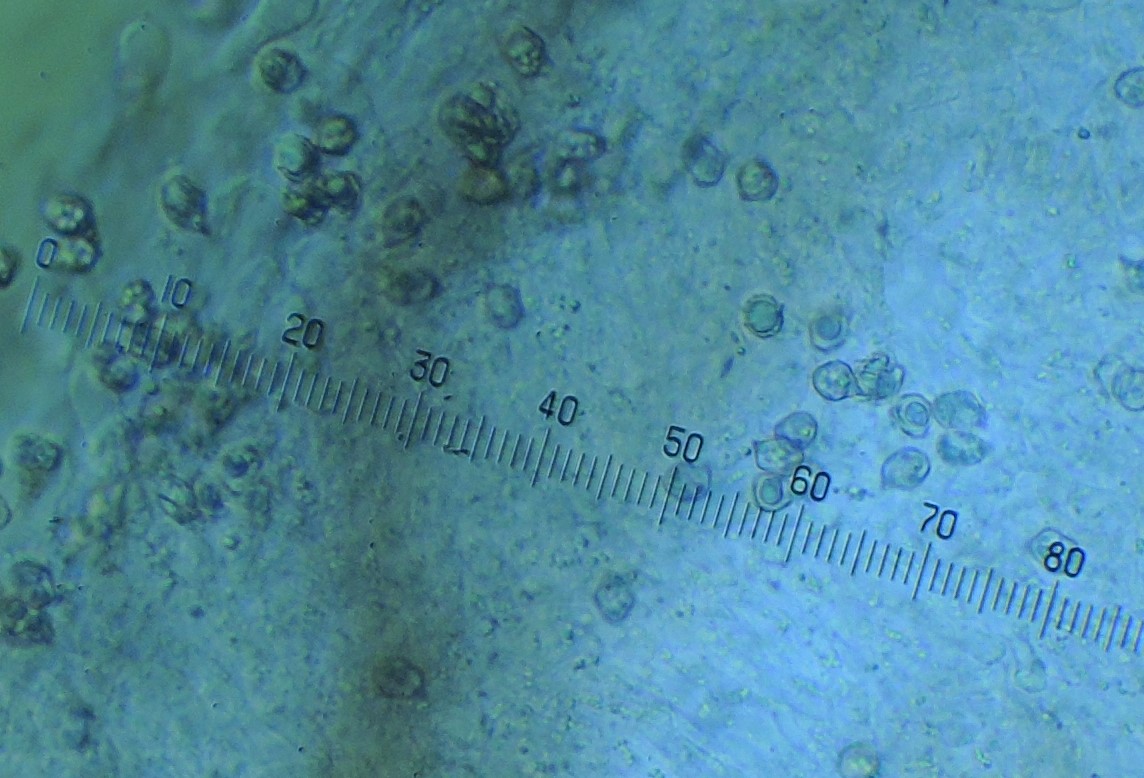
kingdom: Fungi
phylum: Basidiomycota
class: Agaricomycetes
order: Agaricales
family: Entolomataceae
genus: Entoloma
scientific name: Entoloma
